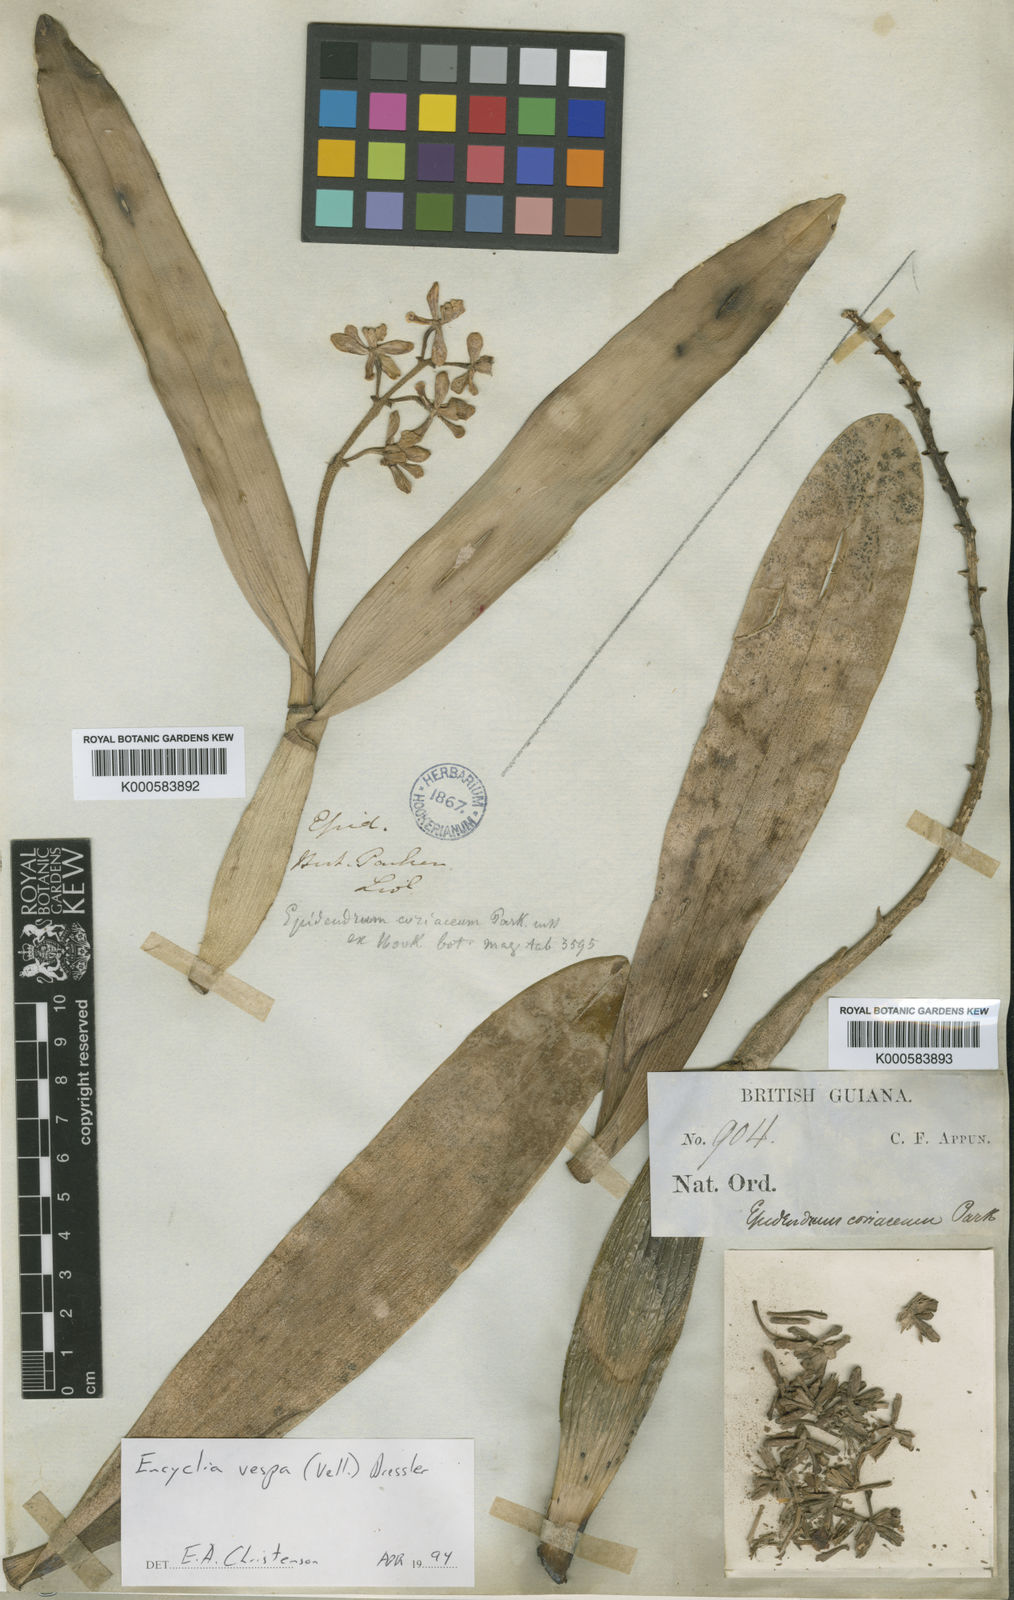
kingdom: Plantae
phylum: Tracheophyta
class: Liliopsida
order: Asparagales
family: Orchidaceae
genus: Encyclia
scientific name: Encyclia
